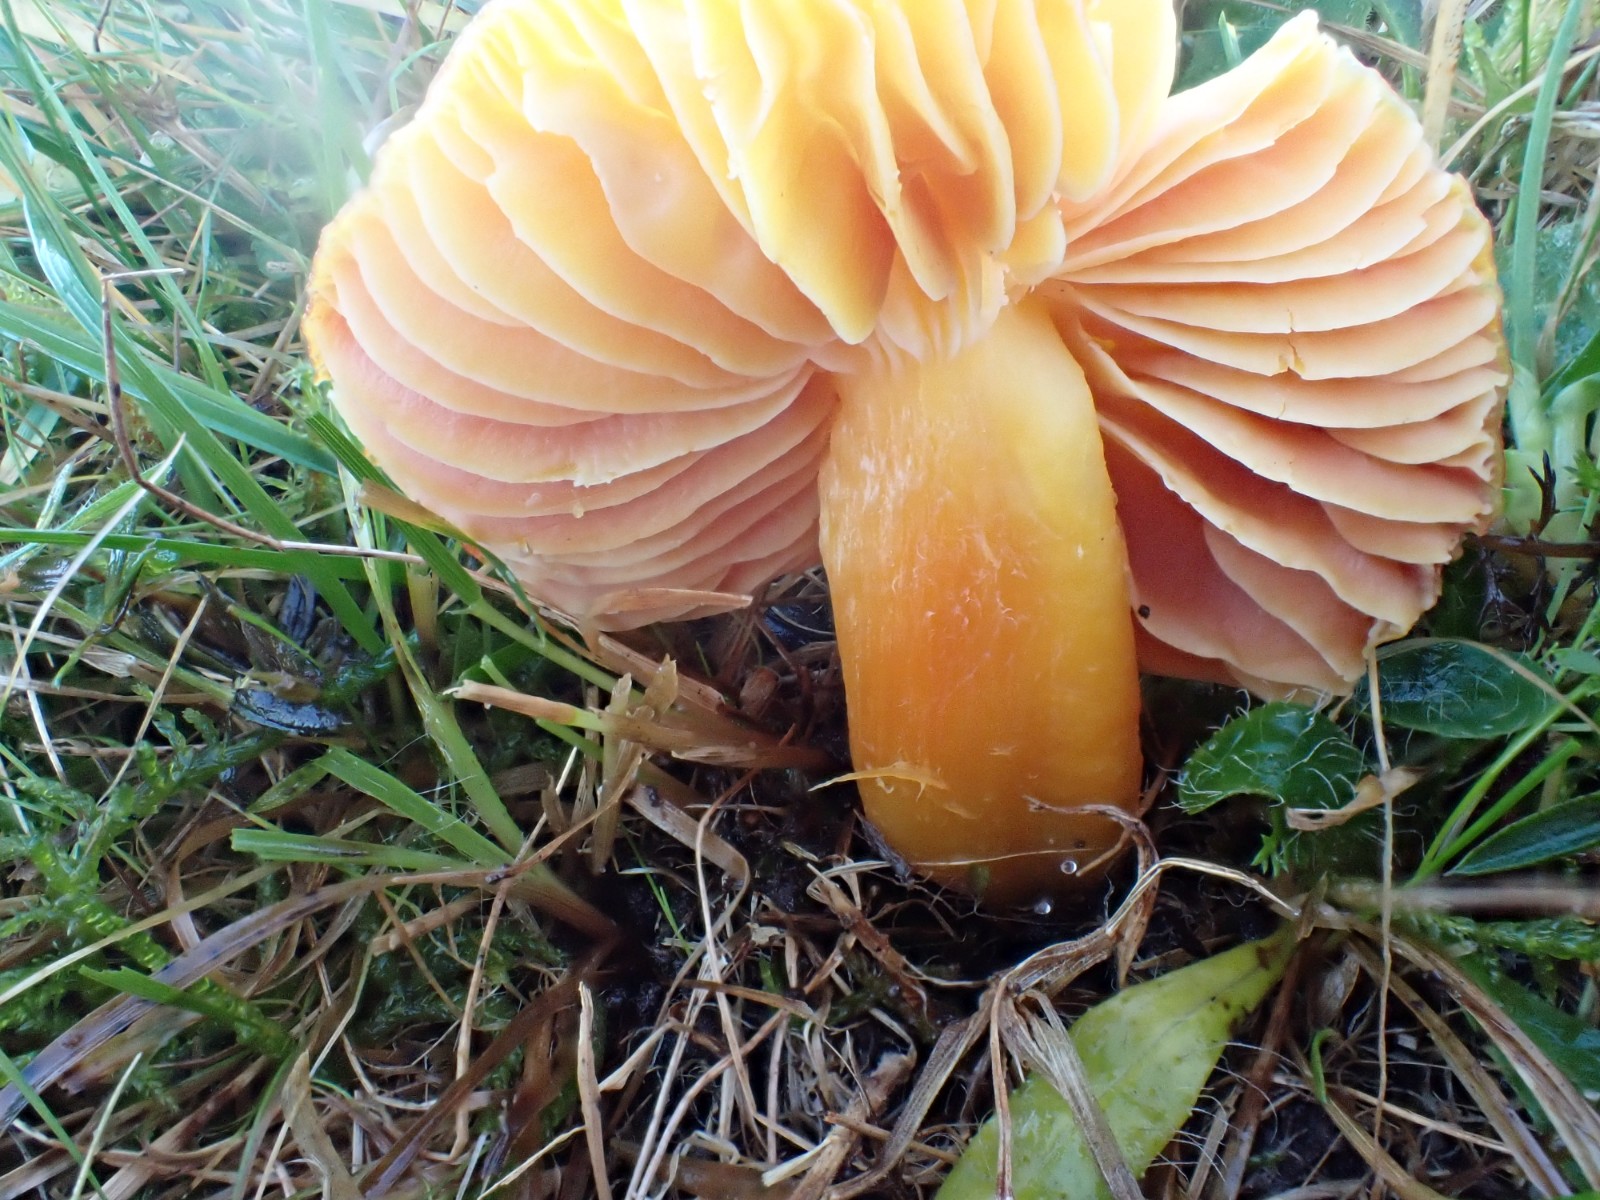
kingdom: Fungi
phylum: Basidiomycota
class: Agaricomycetes
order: Agaricales
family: Hygrophoraceae
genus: Hygrocybe
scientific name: Hygrocybe punicea
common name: skarlagen-vokshat
